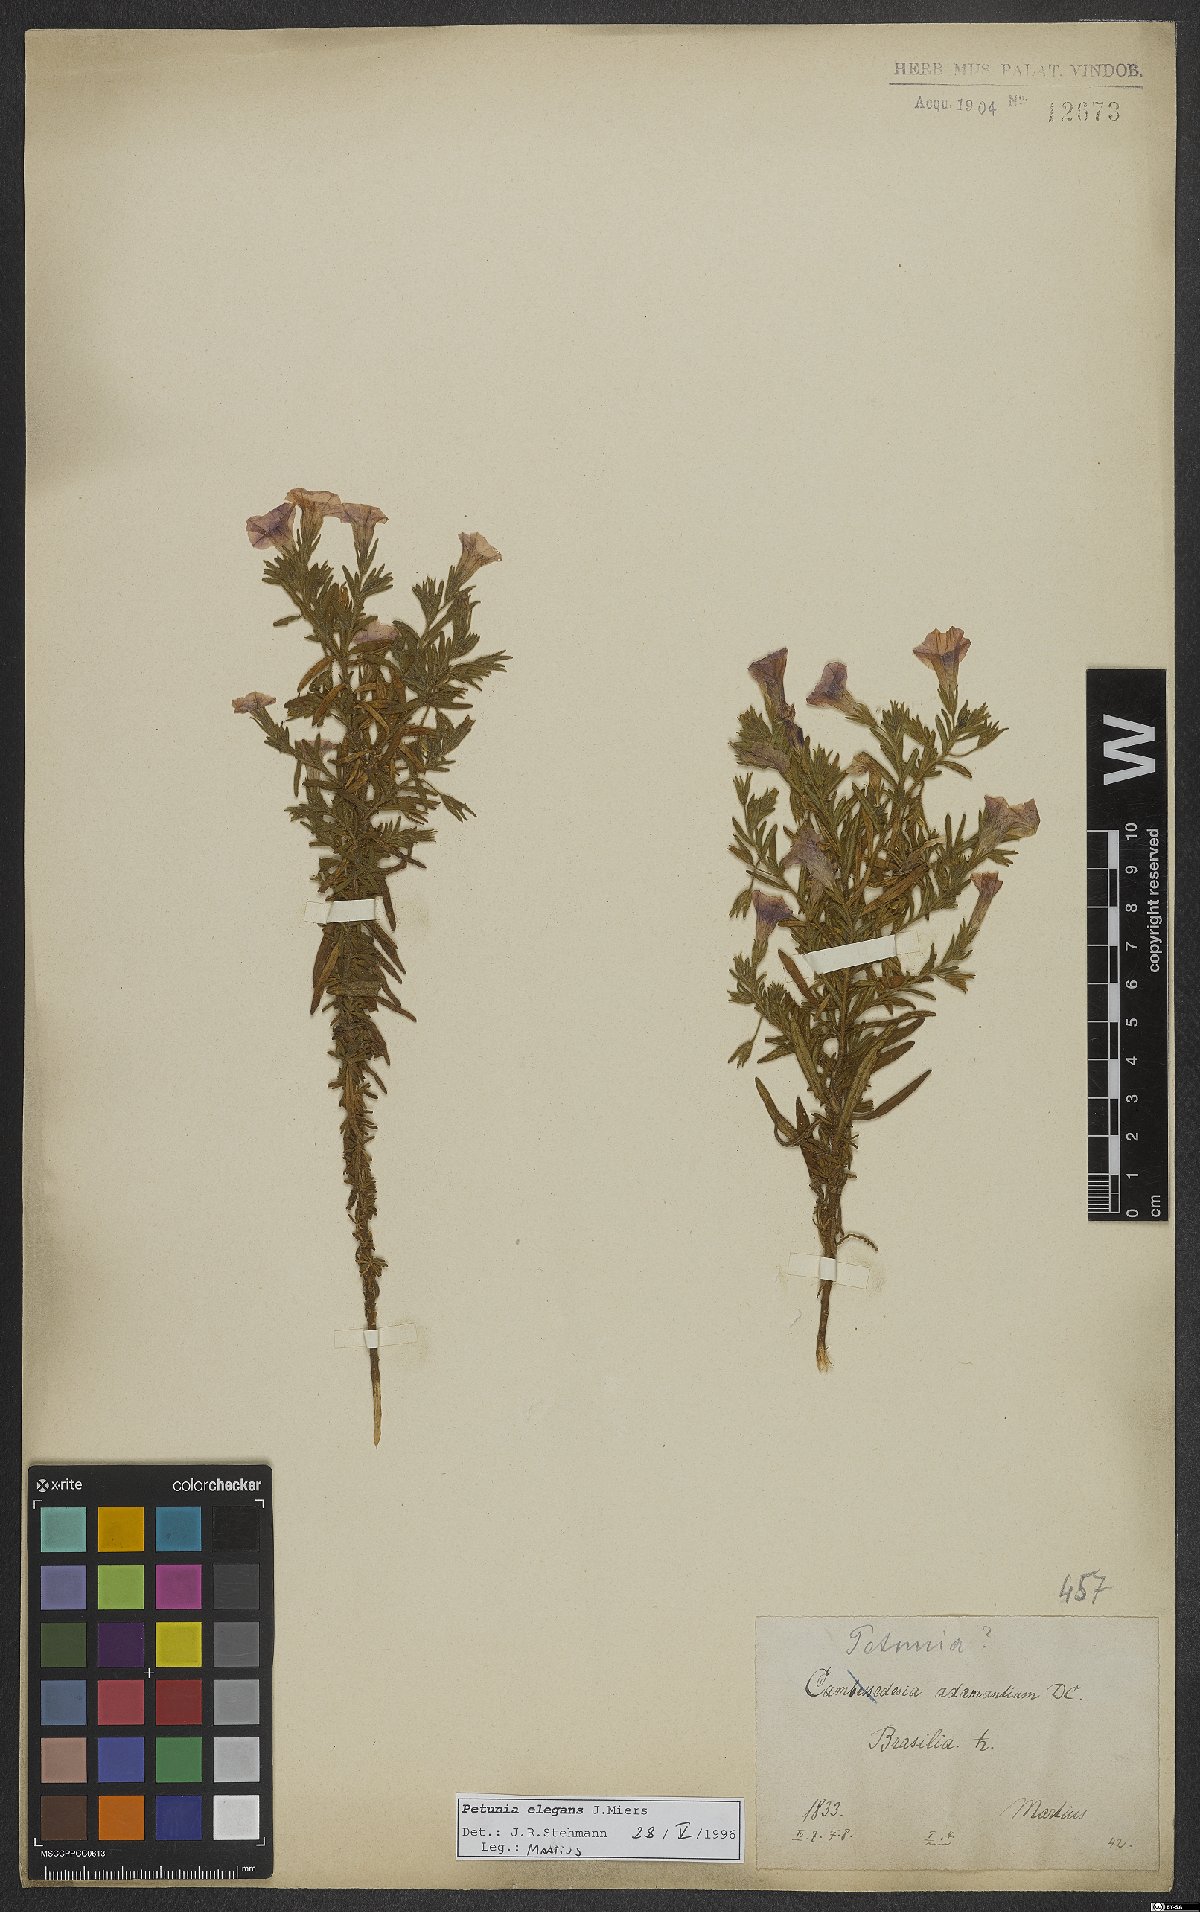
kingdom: Plantae
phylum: Tracheophyta
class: Magnoliopsida
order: Solanales
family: Solanaceae
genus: Calibrachoa
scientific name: Calibrachoa elegans
